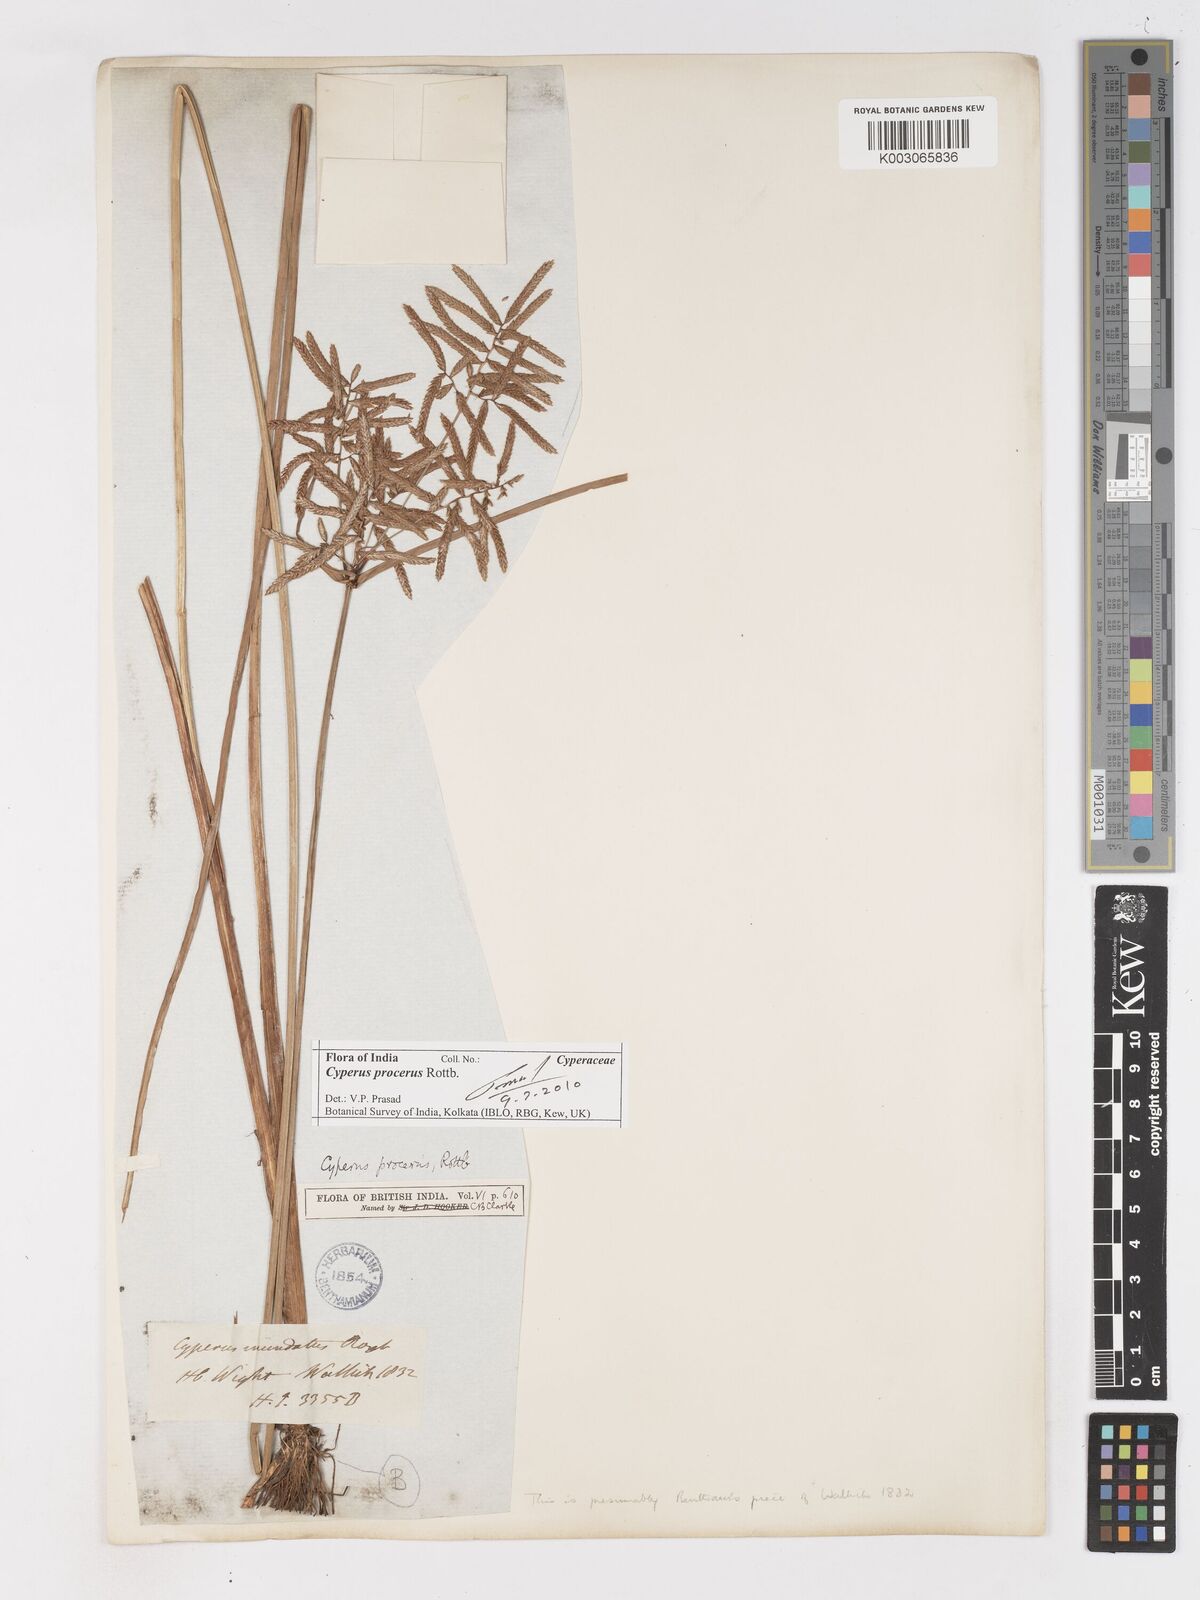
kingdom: Plantae
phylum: Tracheophyta
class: Liliopsida
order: Poales
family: Cyperaceae
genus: Cyperus
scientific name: Cyperus procerus
